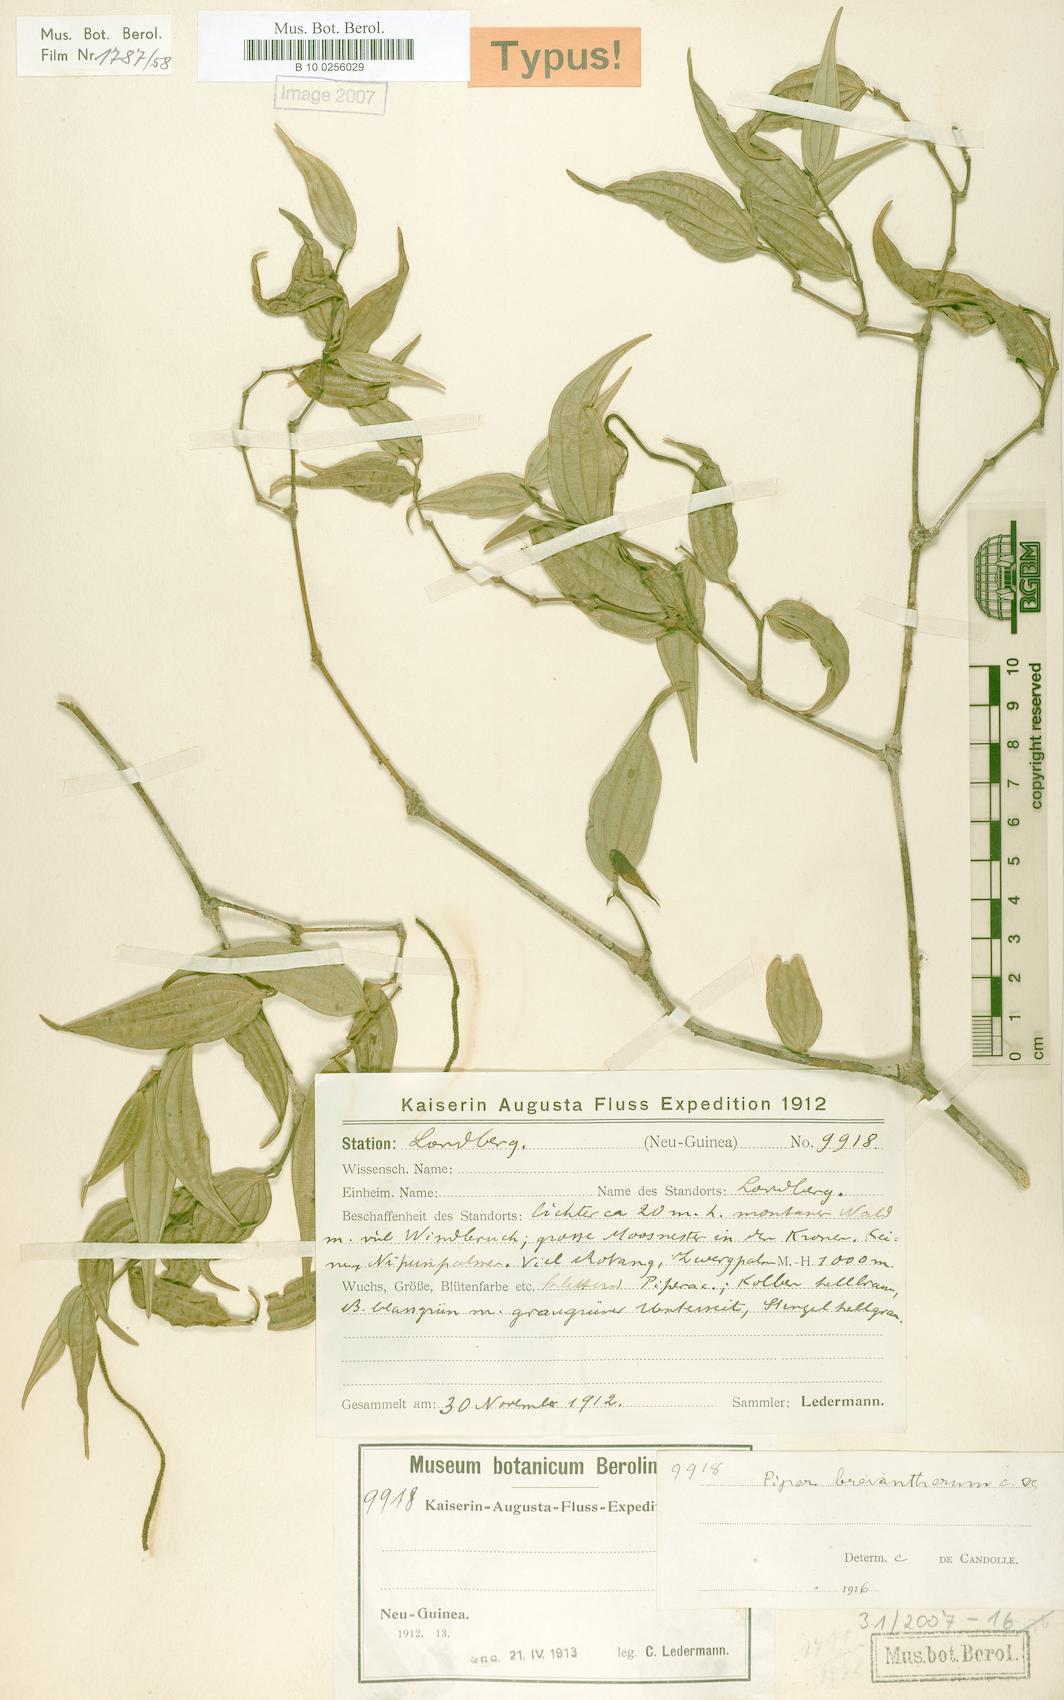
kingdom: Plantae
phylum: Tracheophyta
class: Magnoliopsida
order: Piperales
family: Piperaceae
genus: Piper
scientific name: Piper macropiper
